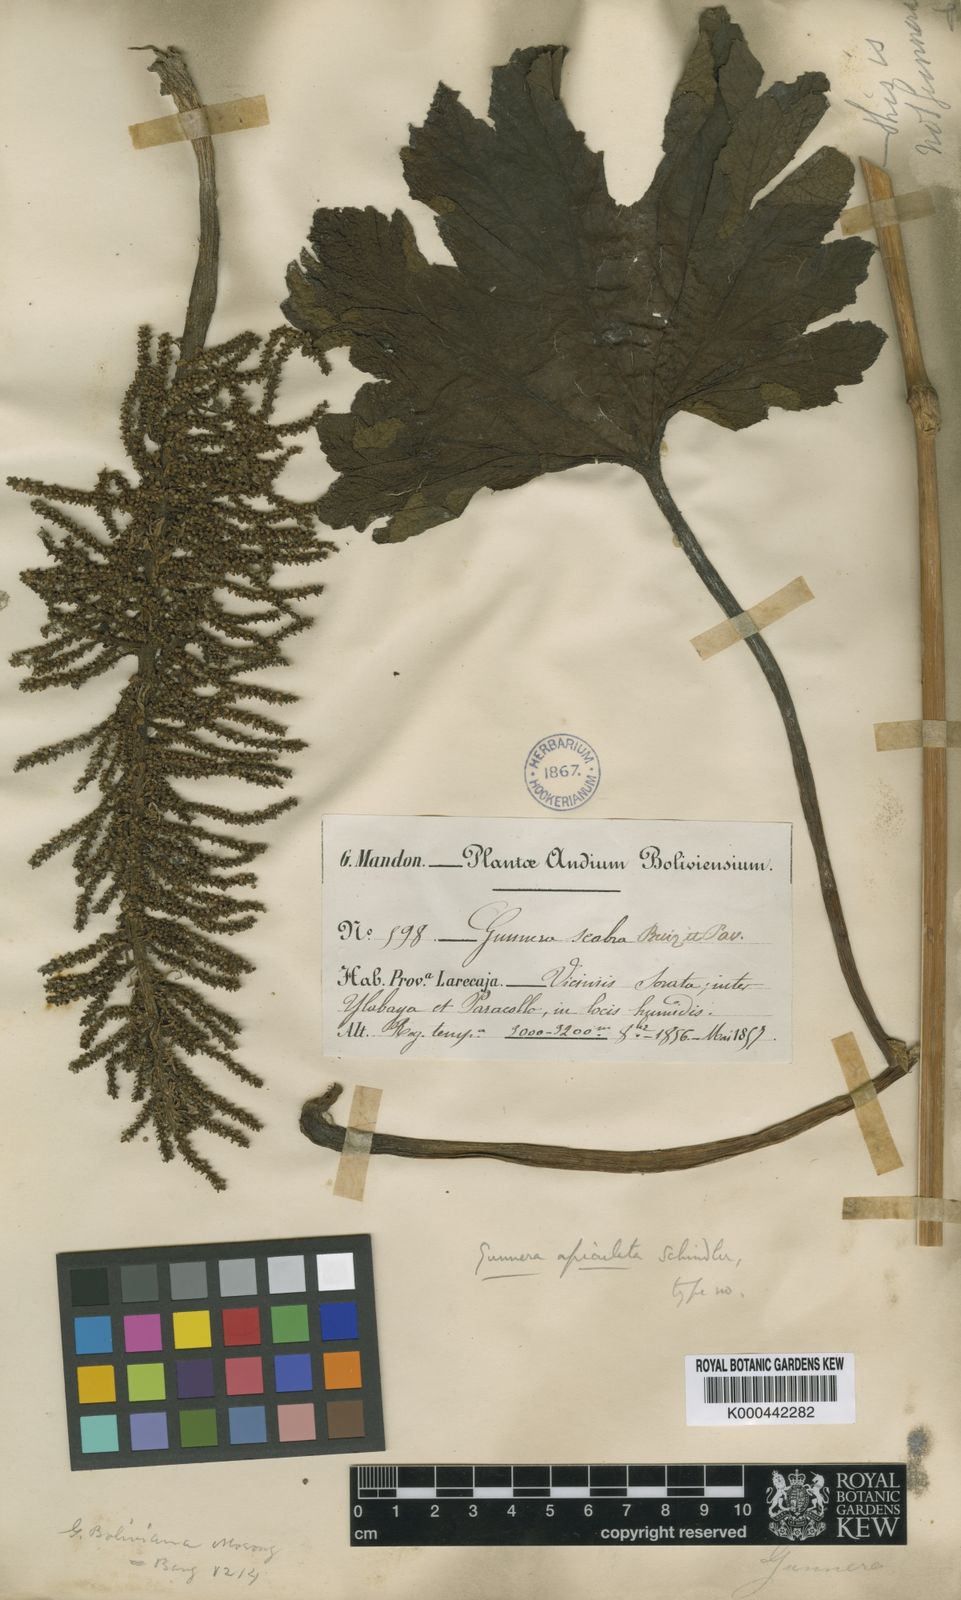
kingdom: Plantae
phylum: Tracheophyta
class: Magnoliopsida
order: Gunnerales
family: Gunneraceae
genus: Gunnera
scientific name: Gunnera tinctoria
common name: Giant-rhubarb
